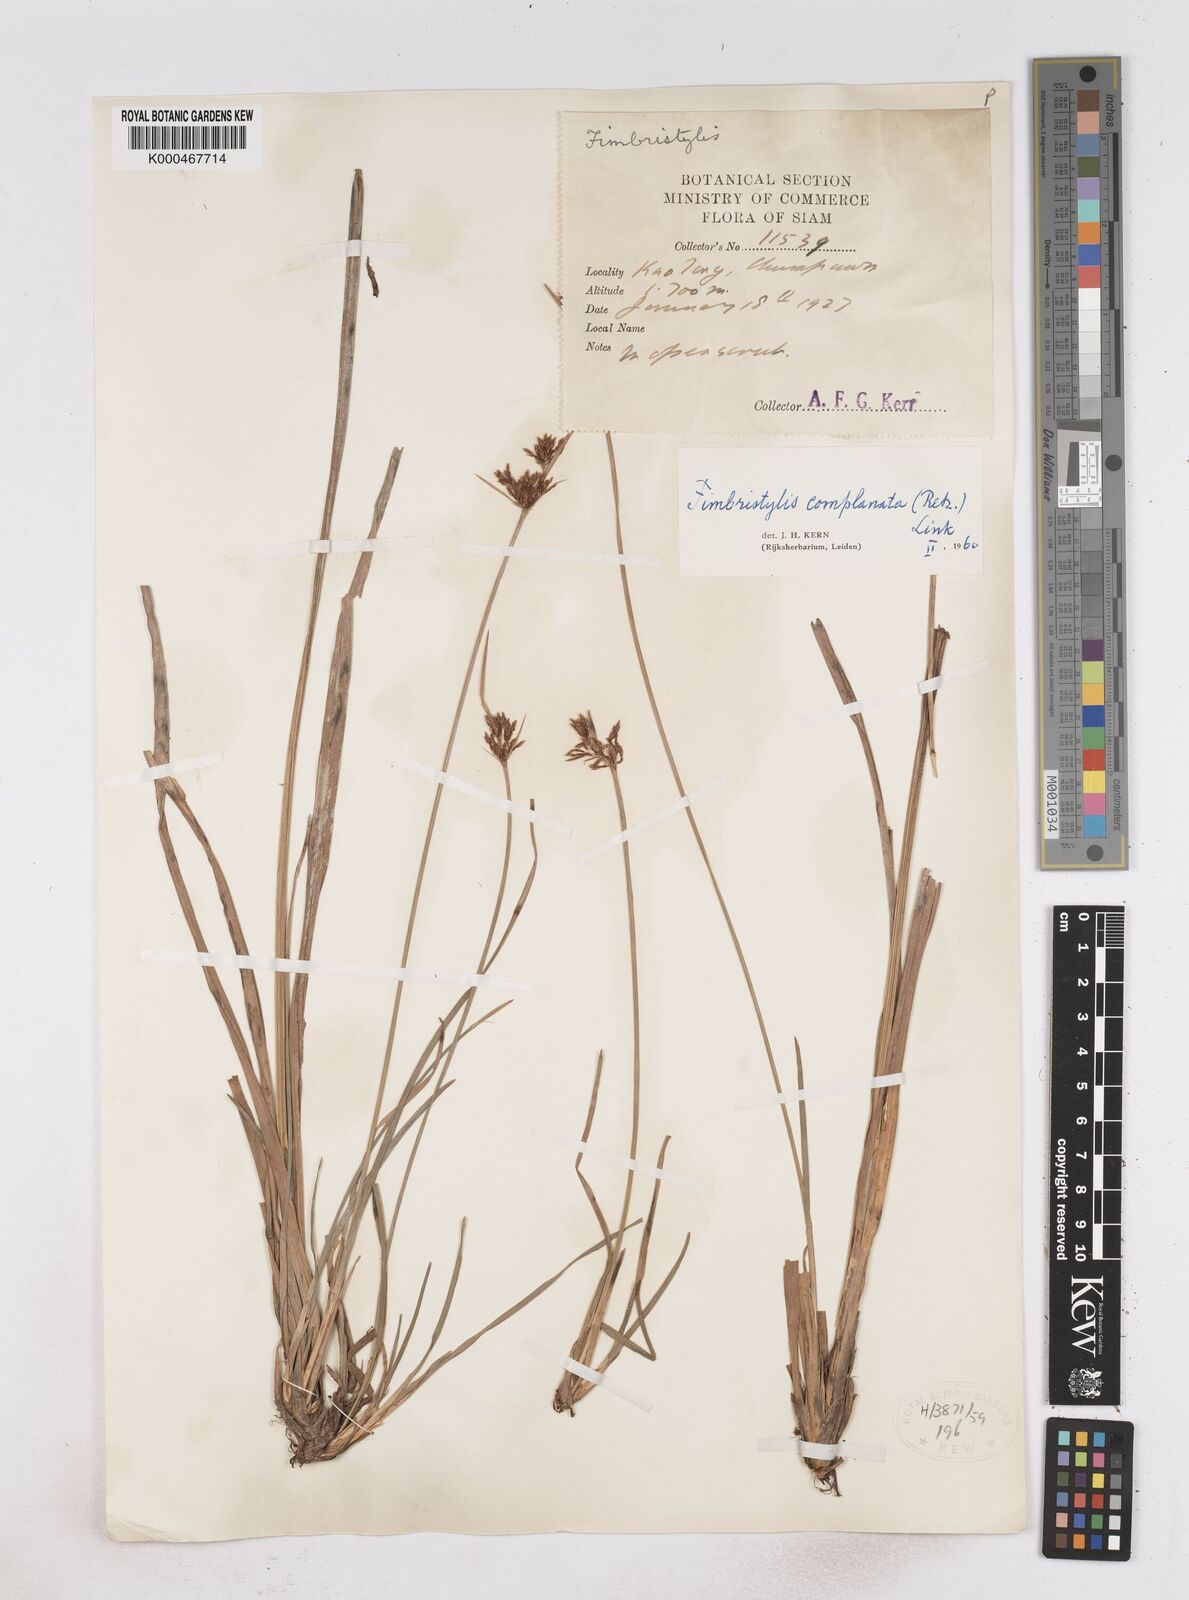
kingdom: Plantae
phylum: Tracheophyta
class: Liliopsida
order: Poales
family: Cyperaceae
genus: Fimbristylis
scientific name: Fimbristylis complanata
